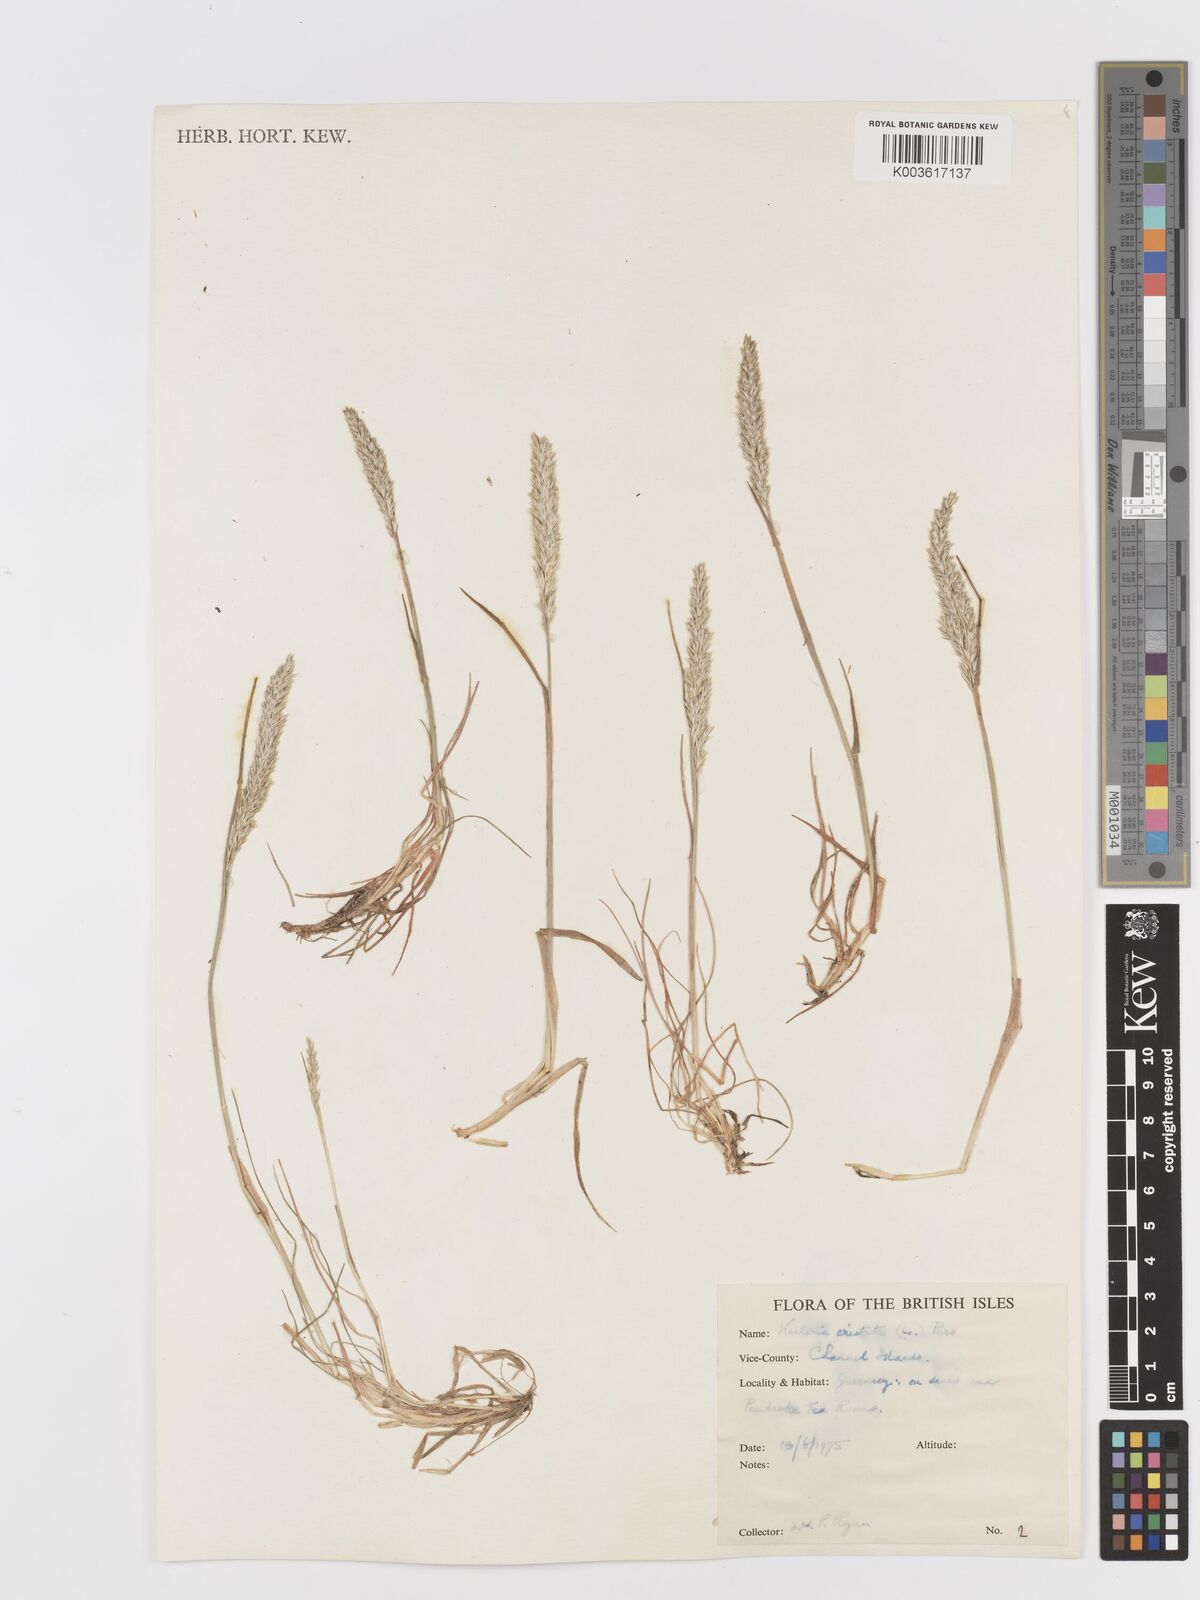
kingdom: Plantae
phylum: Tracheophyta
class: Liliopsida
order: Poales
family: Poaceae
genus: Koeleria
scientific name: Koeleria macrantha
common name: Crested hair-grass
